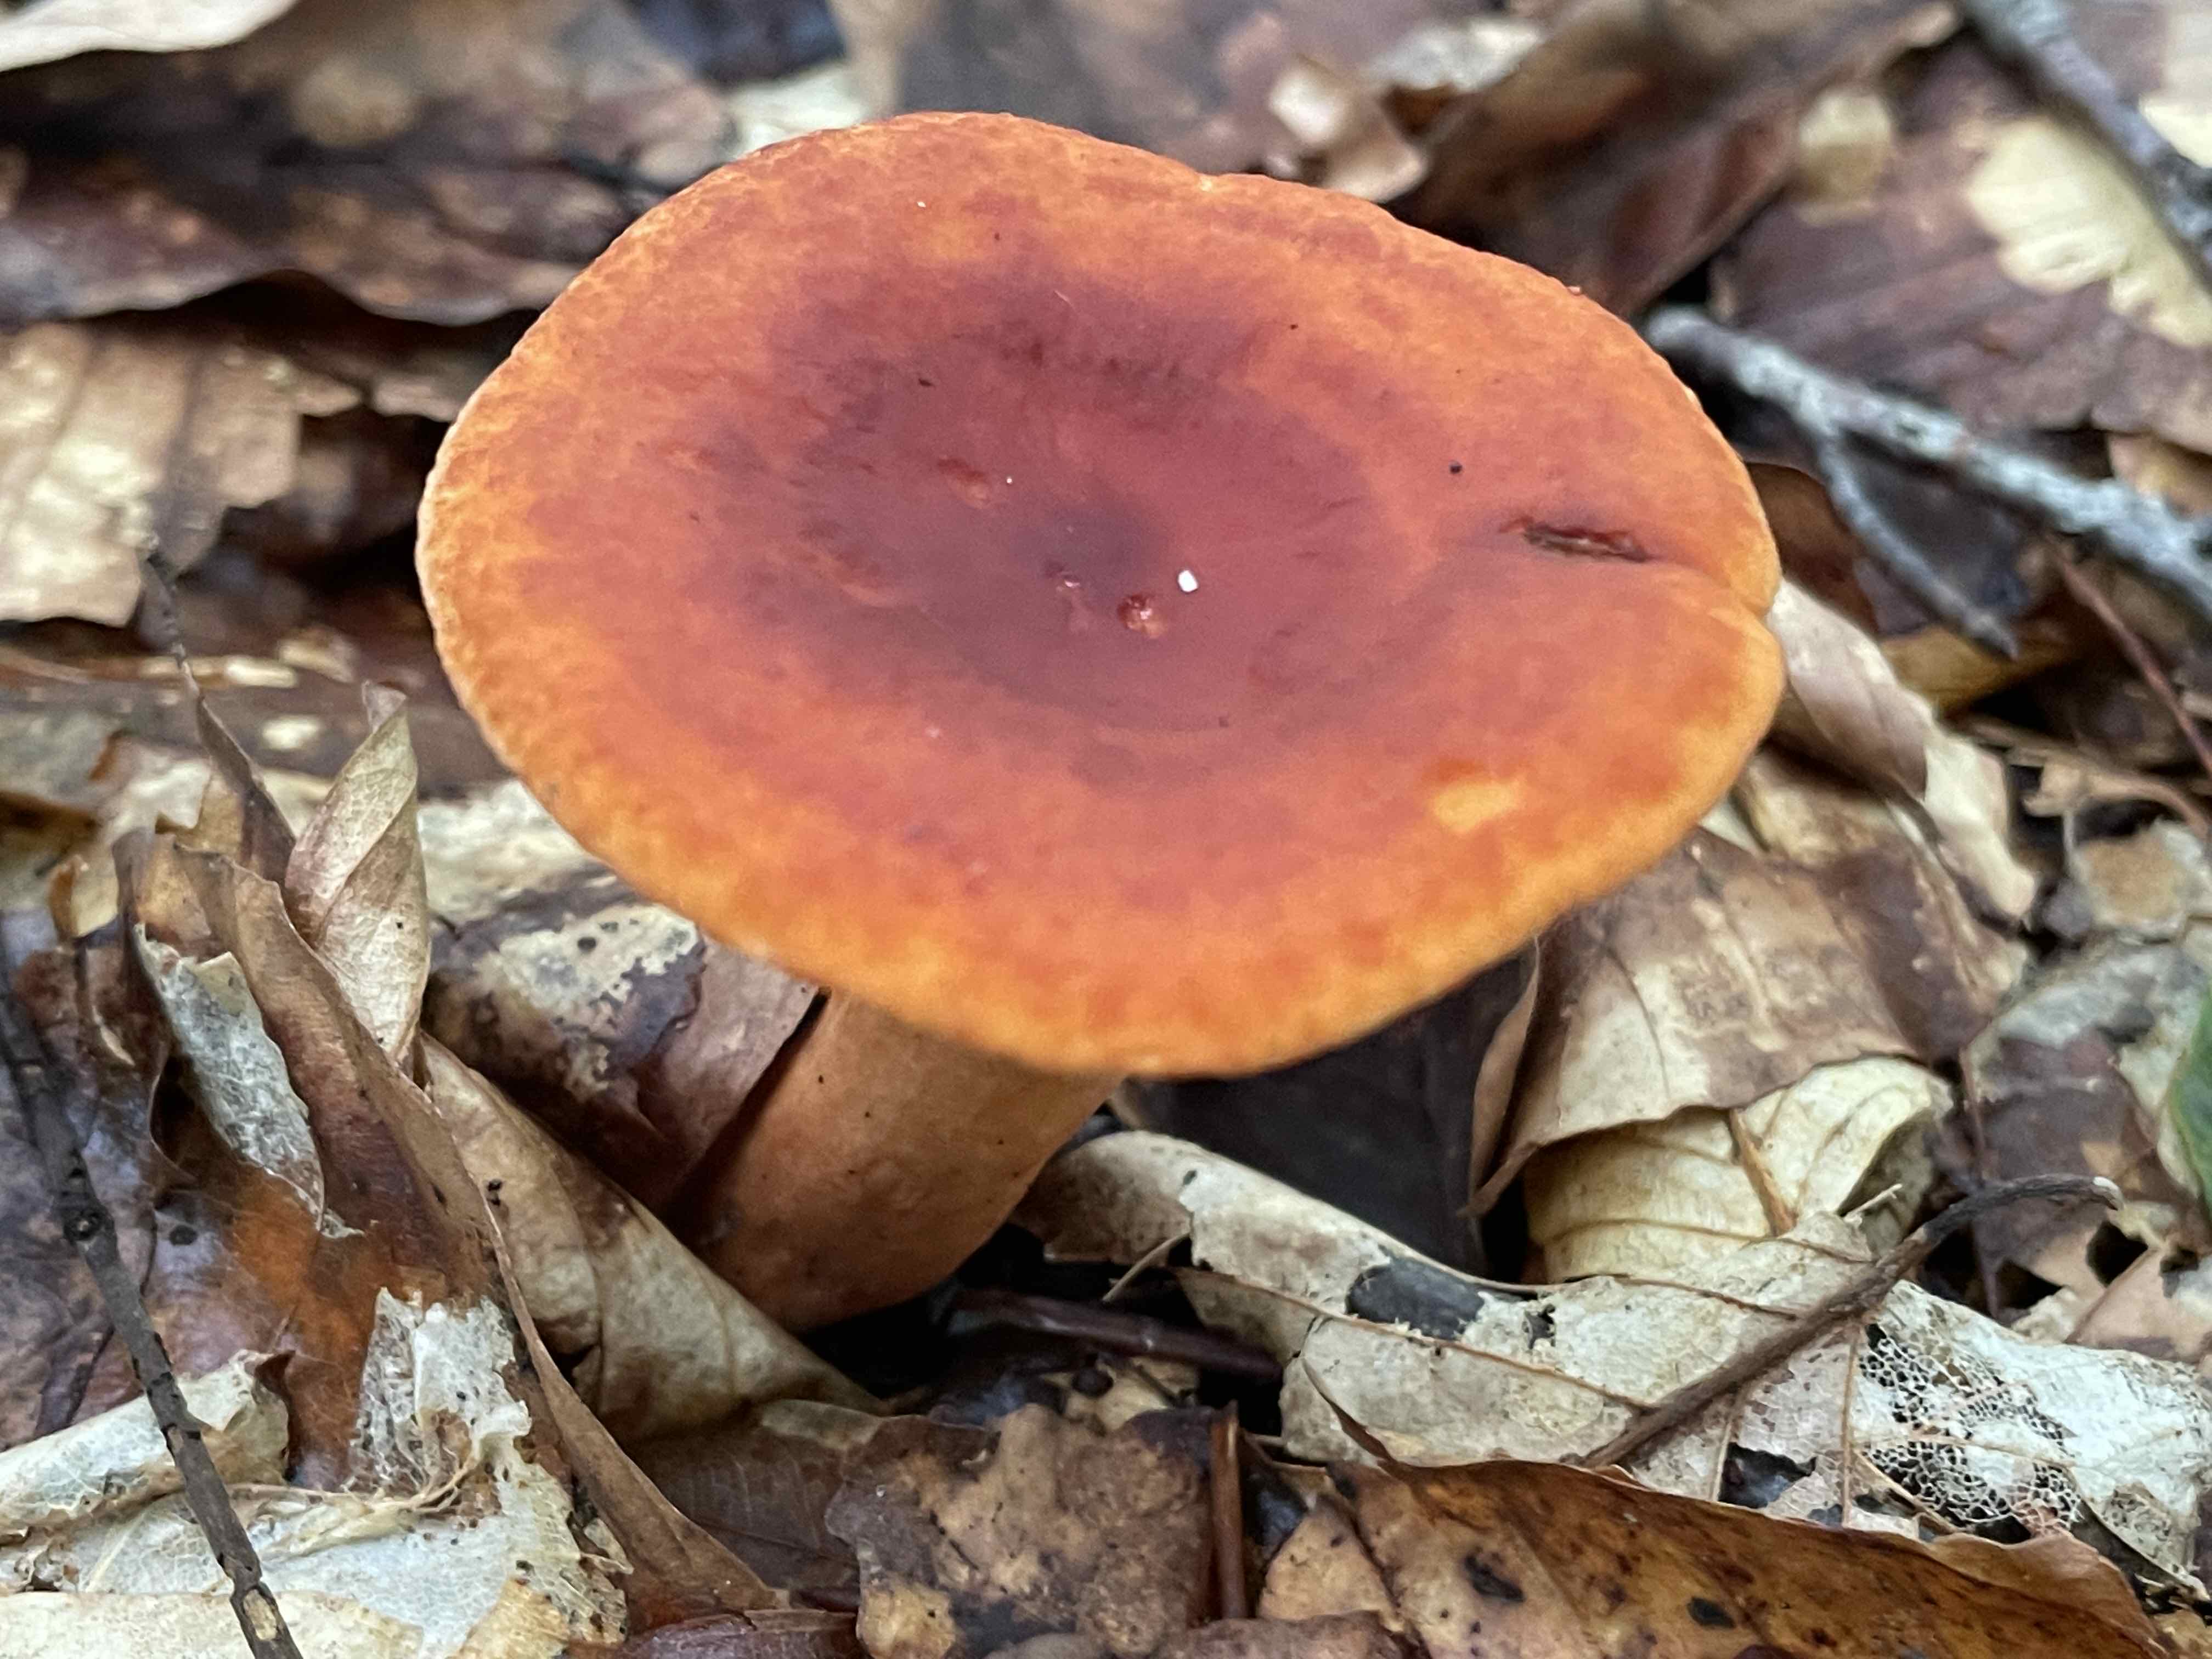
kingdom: Fungi
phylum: Basidiomycota
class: Agaricomycetes
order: Russulales
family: Russulaceae
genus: Lactarius
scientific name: Lactarius fulvissimus
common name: ræve-mælkehat
